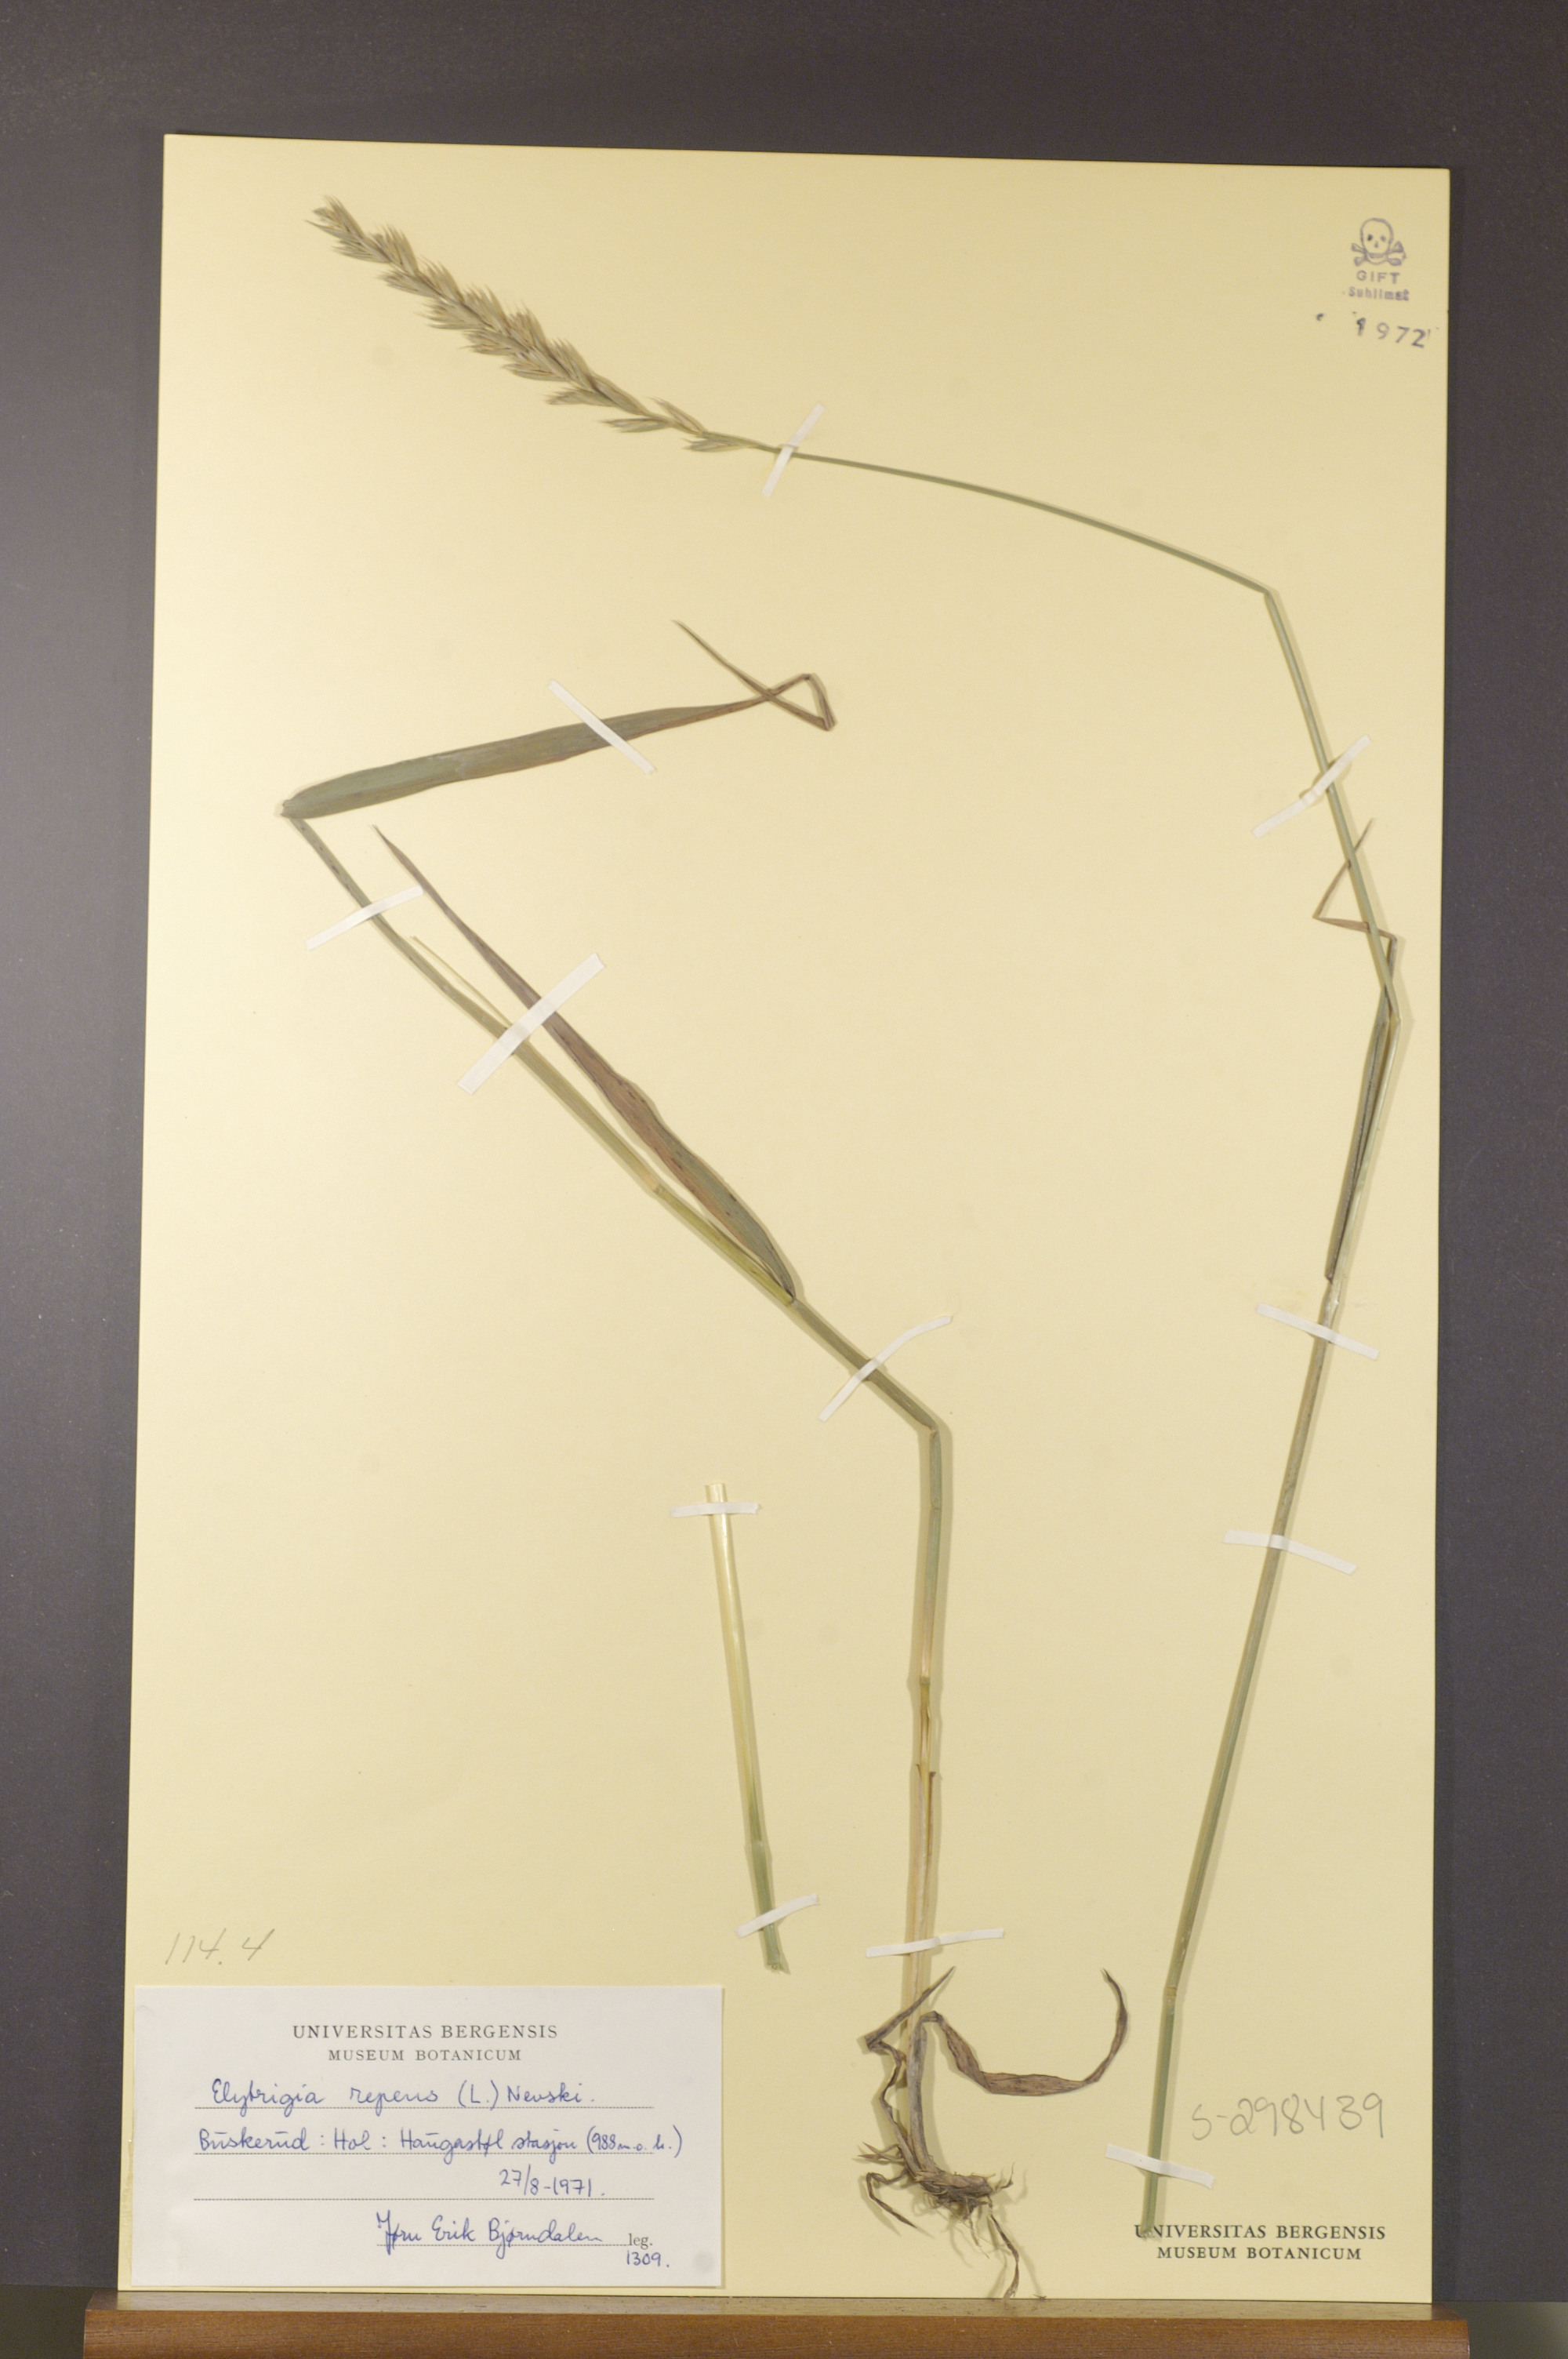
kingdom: Plantae
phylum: Tracheophyta
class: Liliopsida
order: Poales
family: Poaceae
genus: Elymus
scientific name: Elymus repens
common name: Quackgrass
